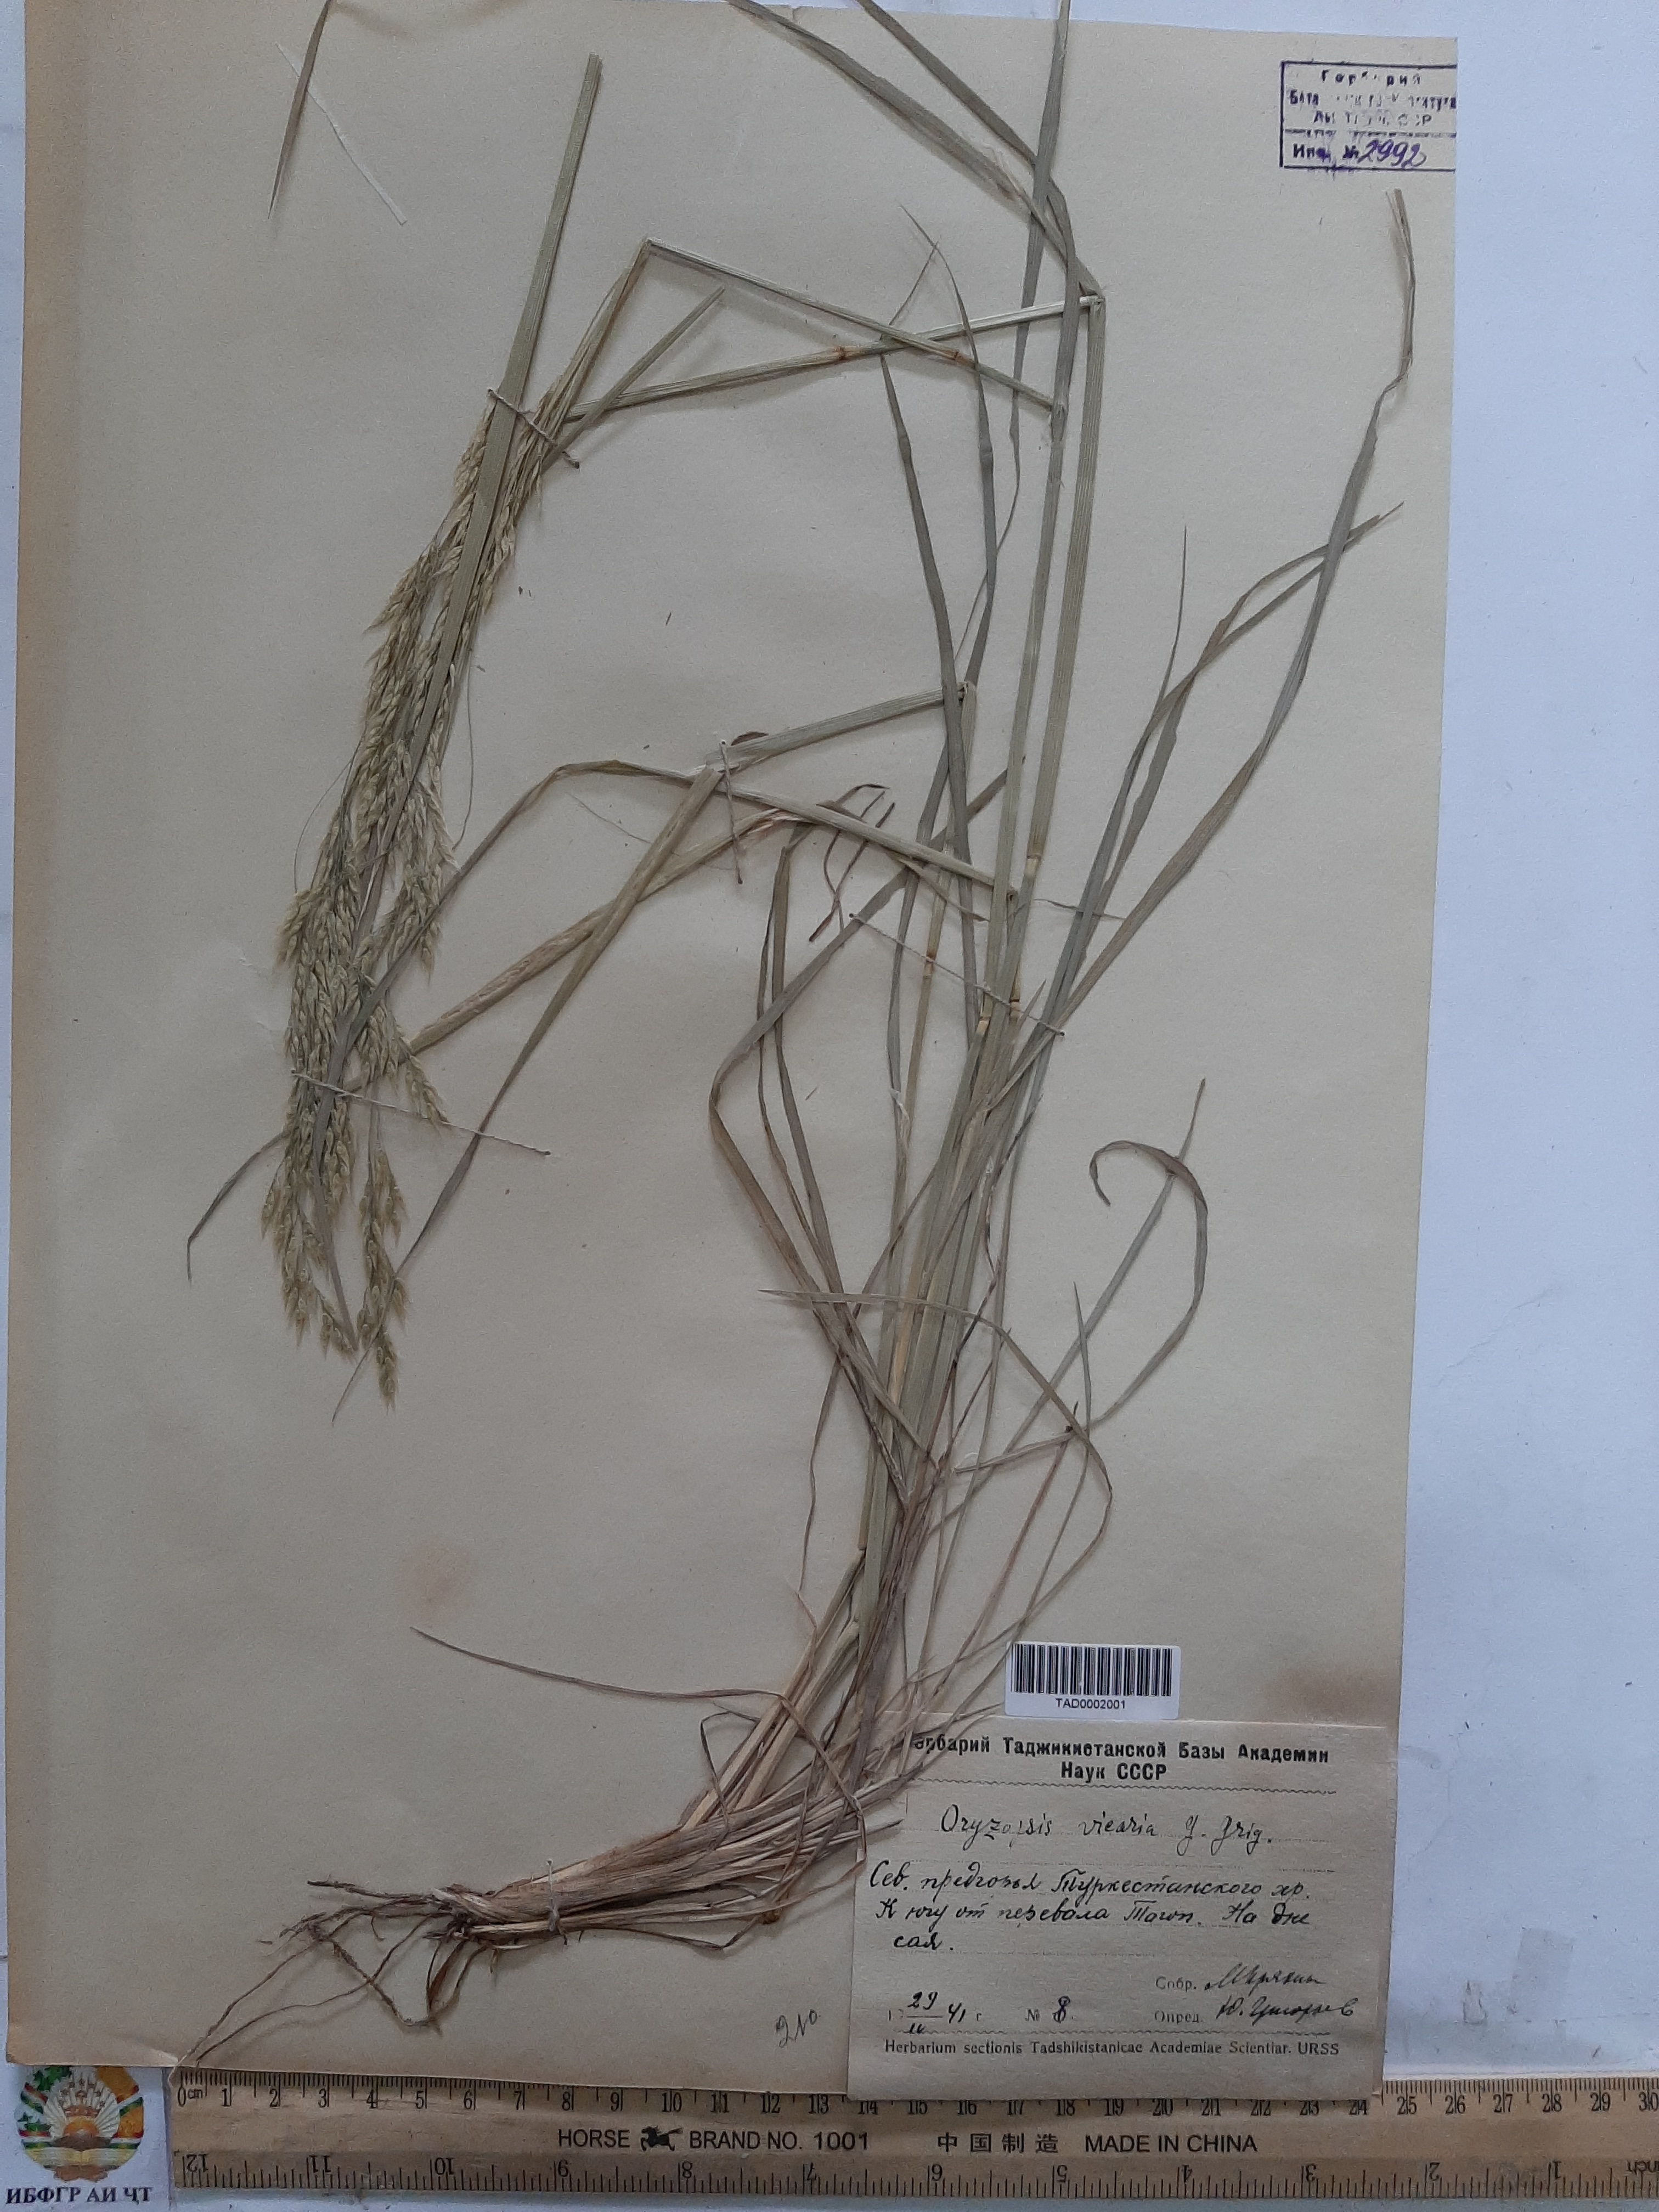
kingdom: Plantae
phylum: Tracheophyta
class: Liliopsida
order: Poales
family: Poaceae
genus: Piptatherum
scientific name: Piptatherum microcarpum
